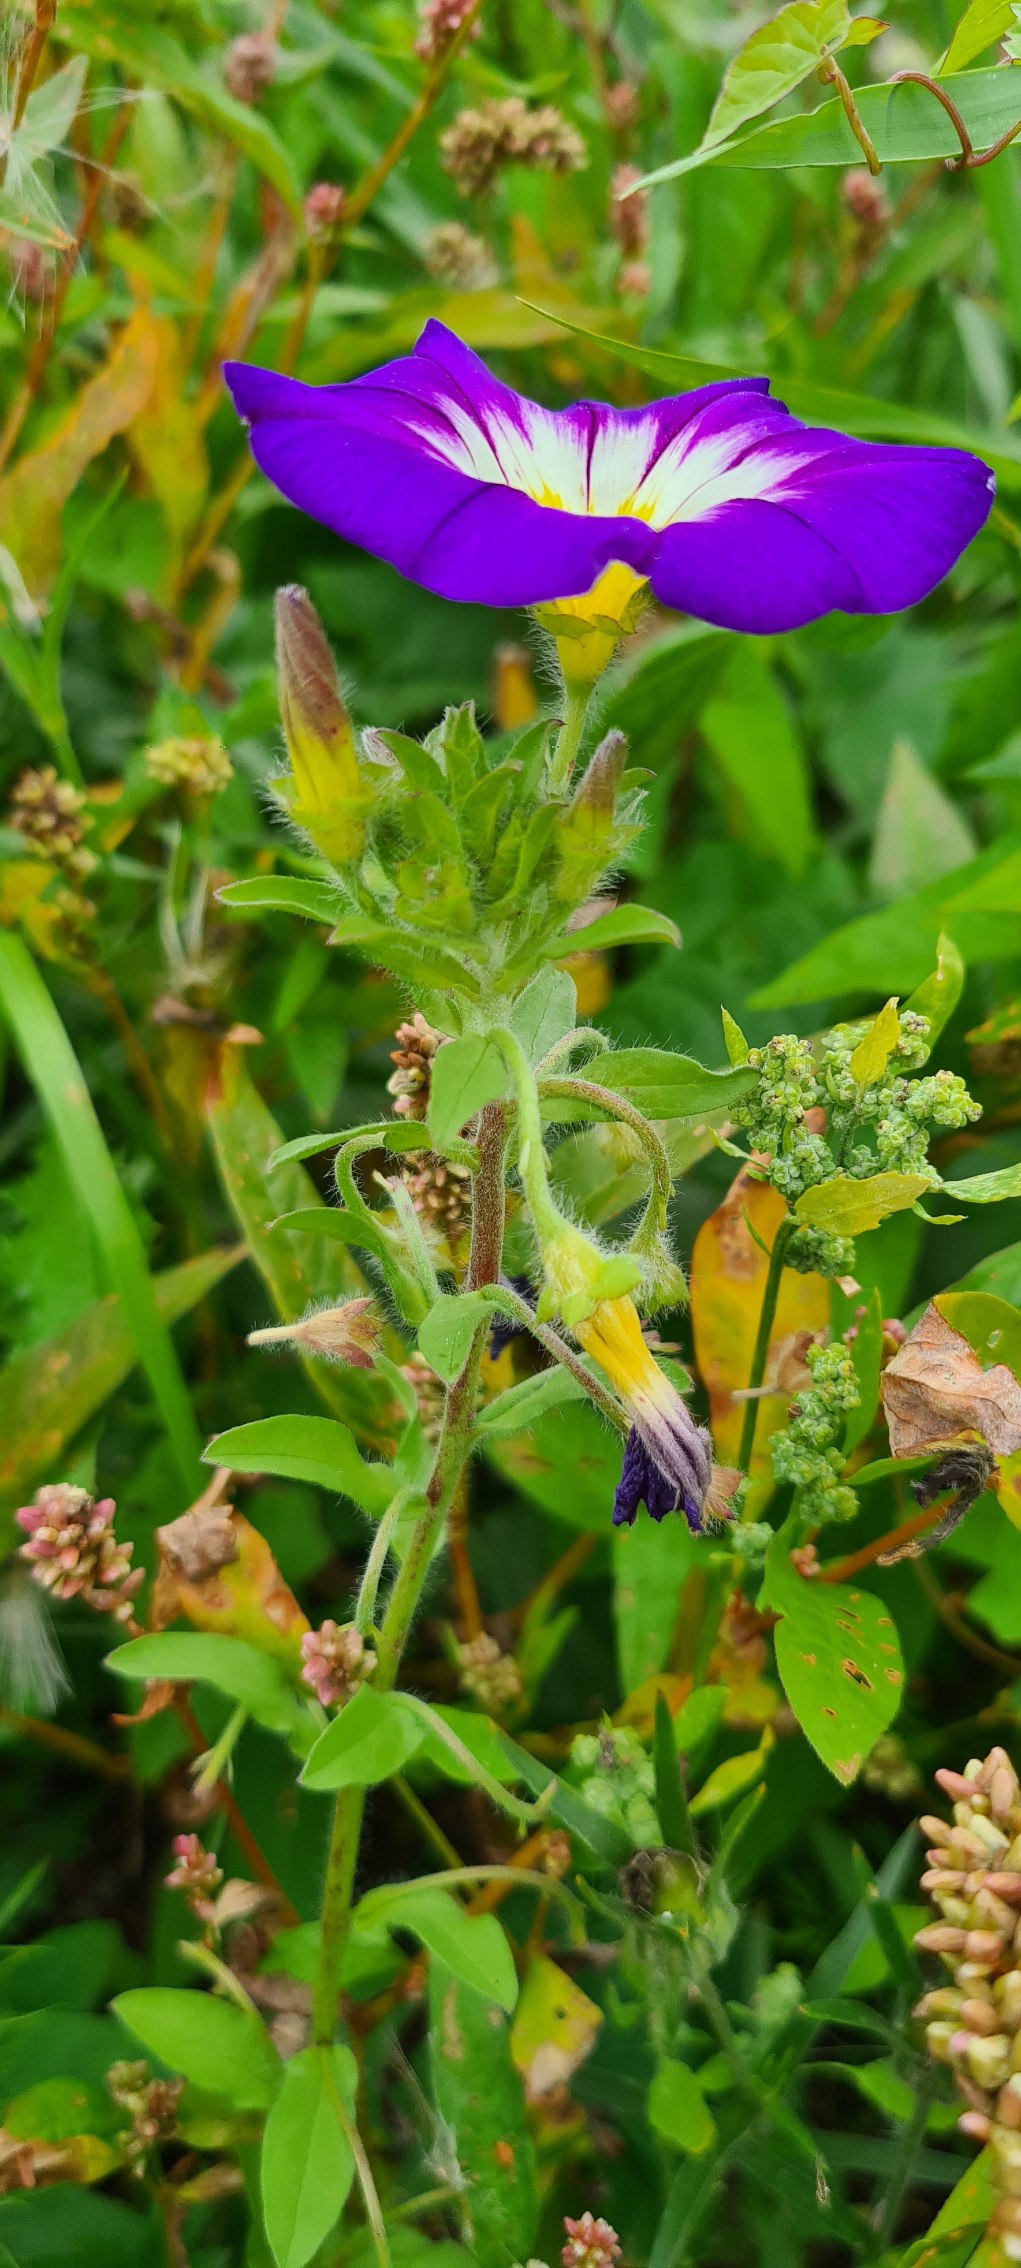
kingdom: Plantae
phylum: Tracheophyta
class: Magnoliopsida
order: Solanales
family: Convolvulaceae
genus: Convolvulus
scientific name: Convolvulus tricolor
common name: Jomfruskørt
